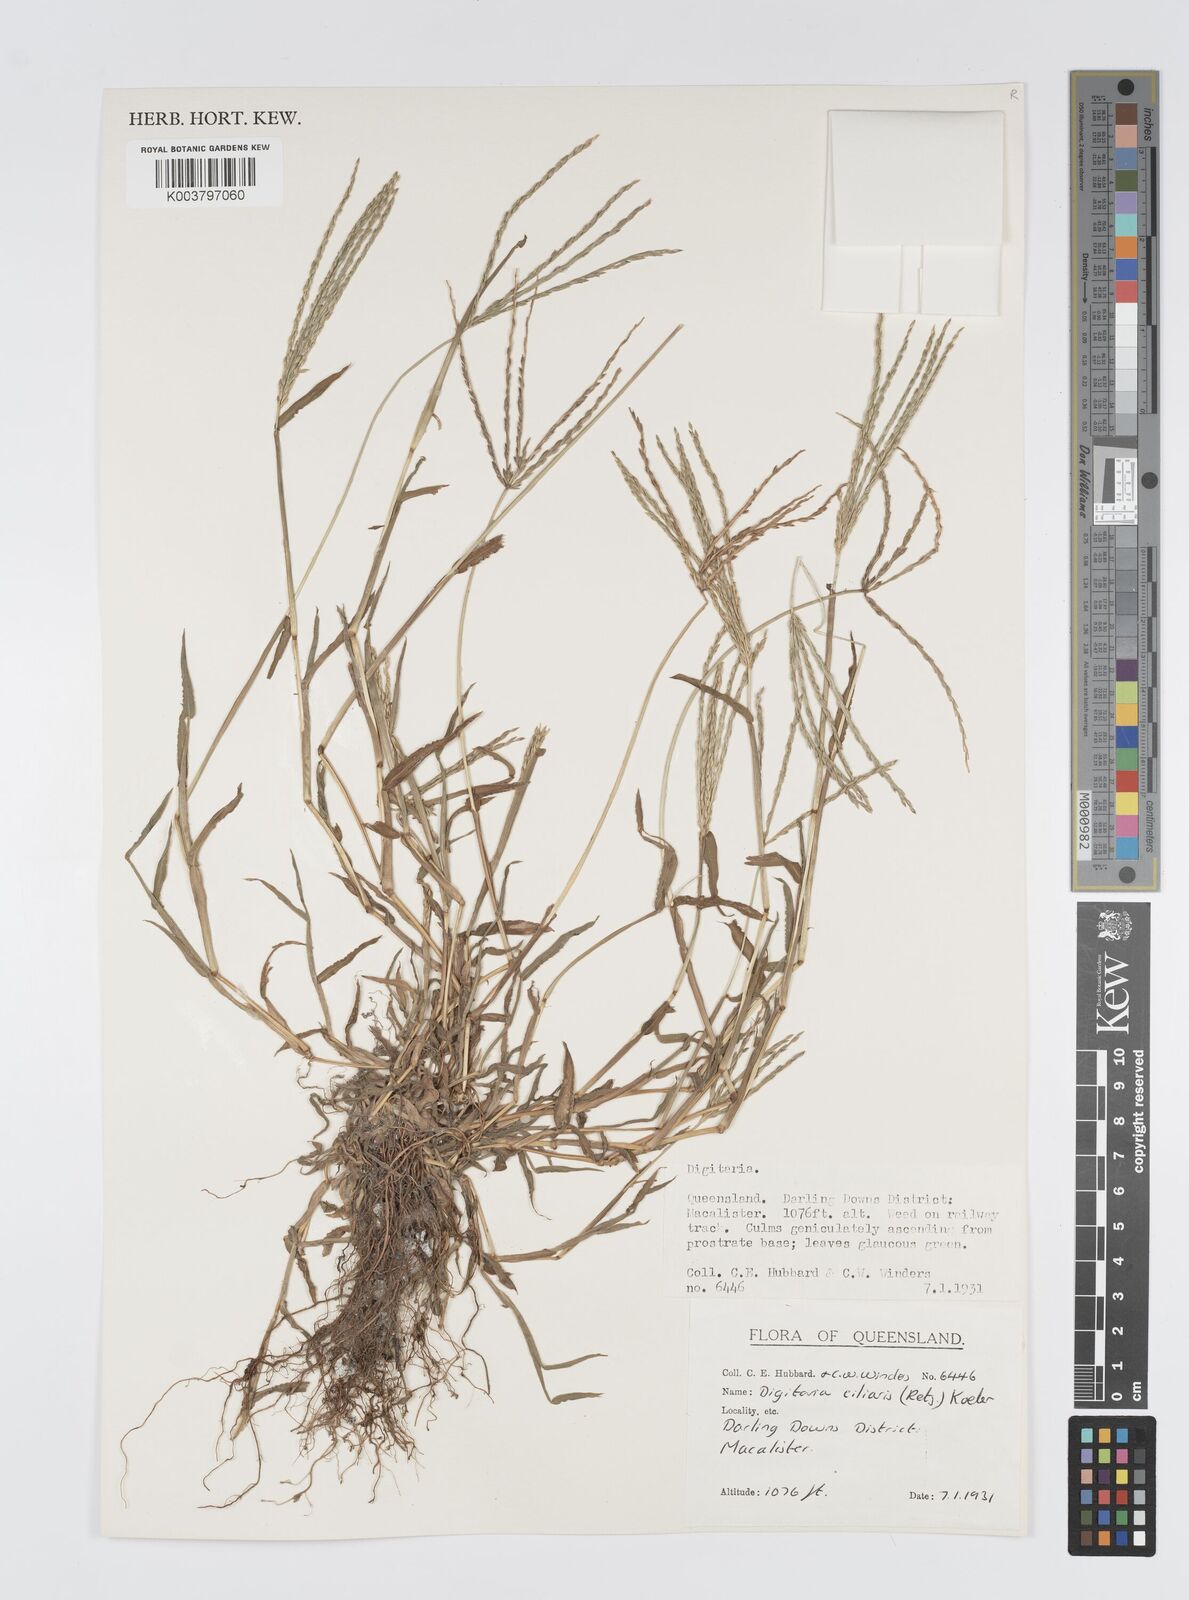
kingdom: Plantae
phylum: Tracheophyta
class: Liliopsida
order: Poales
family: Poaceae
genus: Digitaria
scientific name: Digitaria ciliaris
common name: Tropical finger-grass
